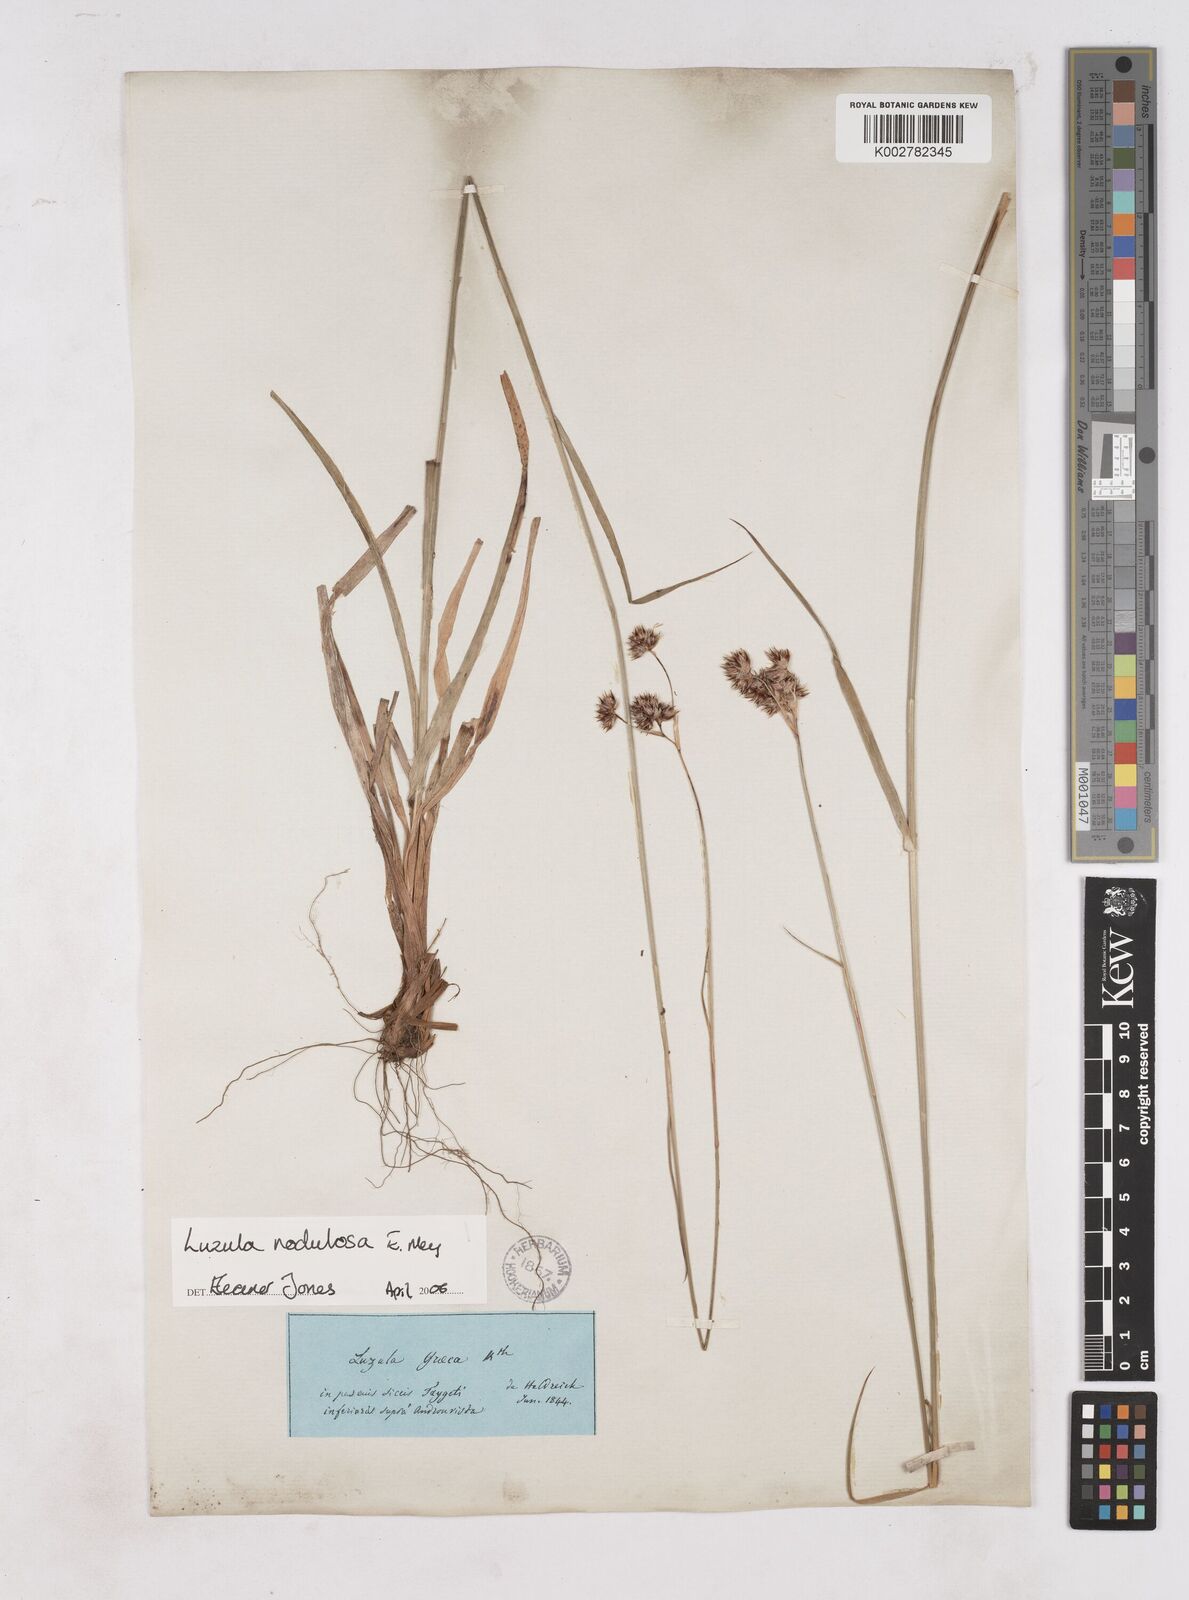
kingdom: Plantae
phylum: Tracheophyta
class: Liliopsida
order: Poales
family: Juncaceae
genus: Luzula
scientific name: Luzula nodulosa
